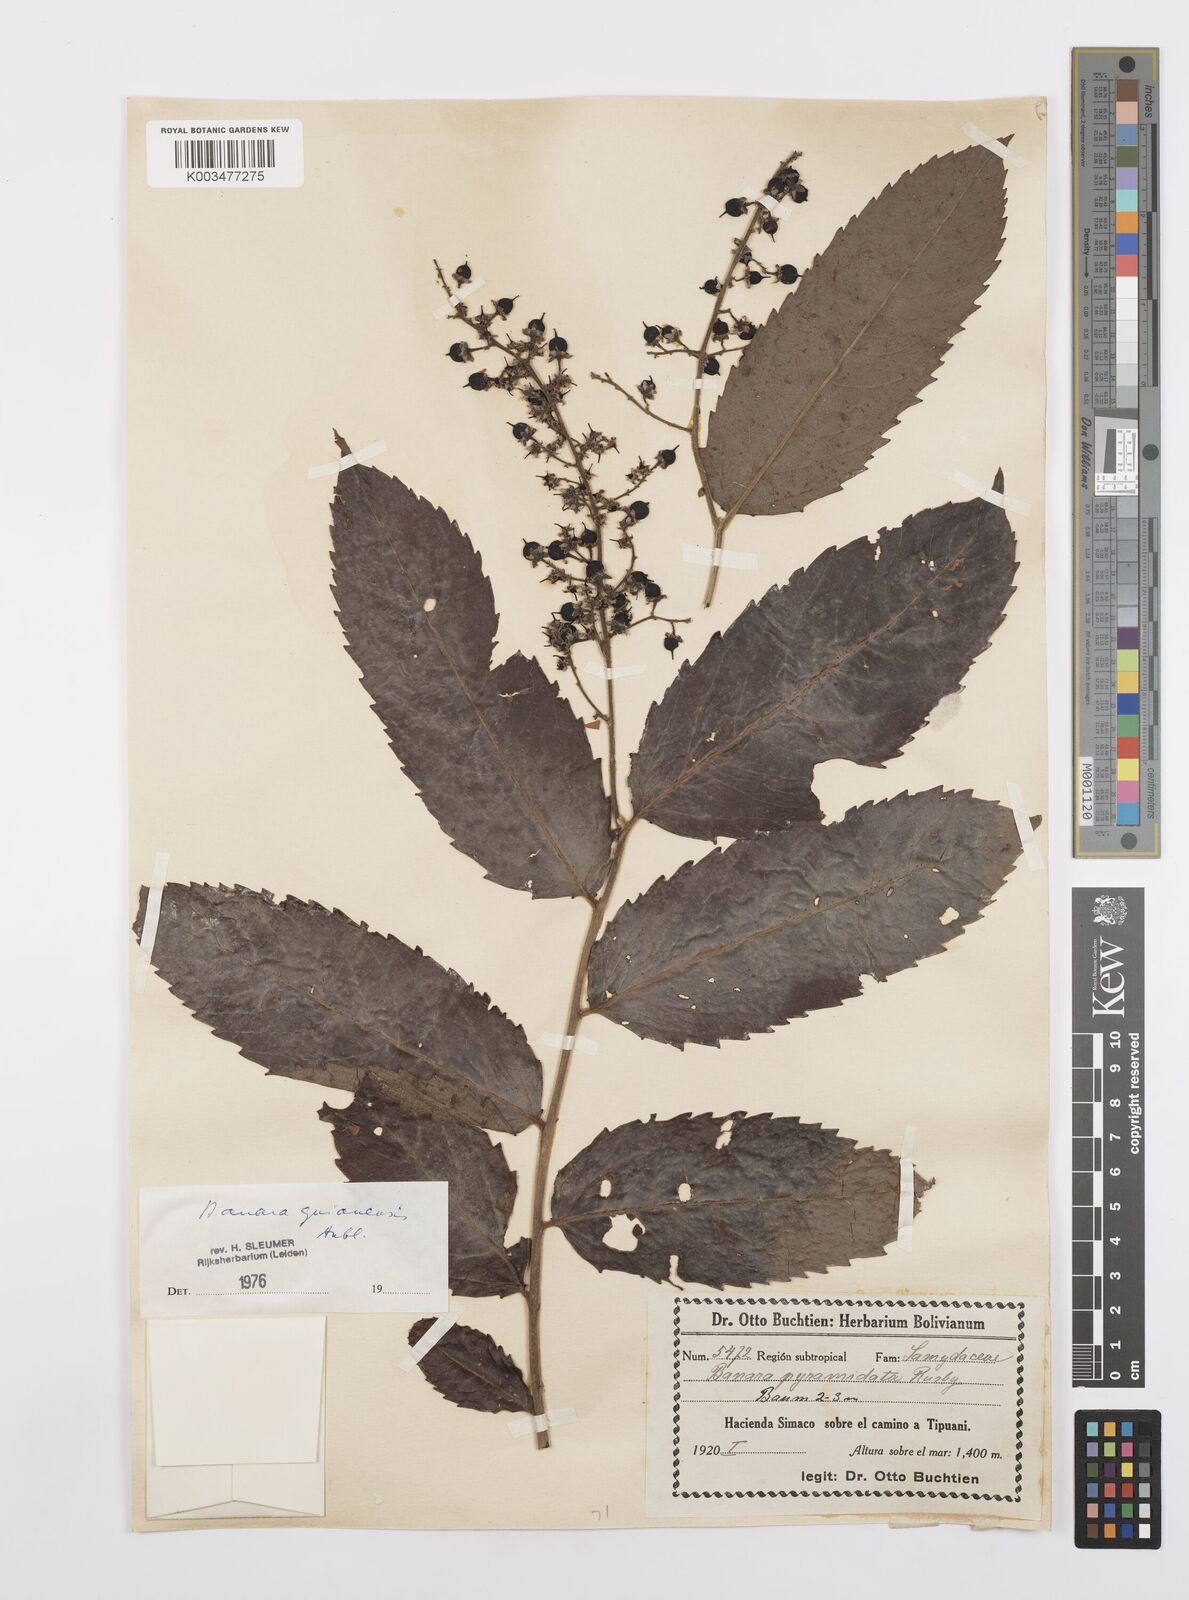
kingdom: Plantae
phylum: Tracheophyta
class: Magnoliopsida
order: Malpighiales
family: Salicaceae
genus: Banara
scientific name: Banara guianensis
